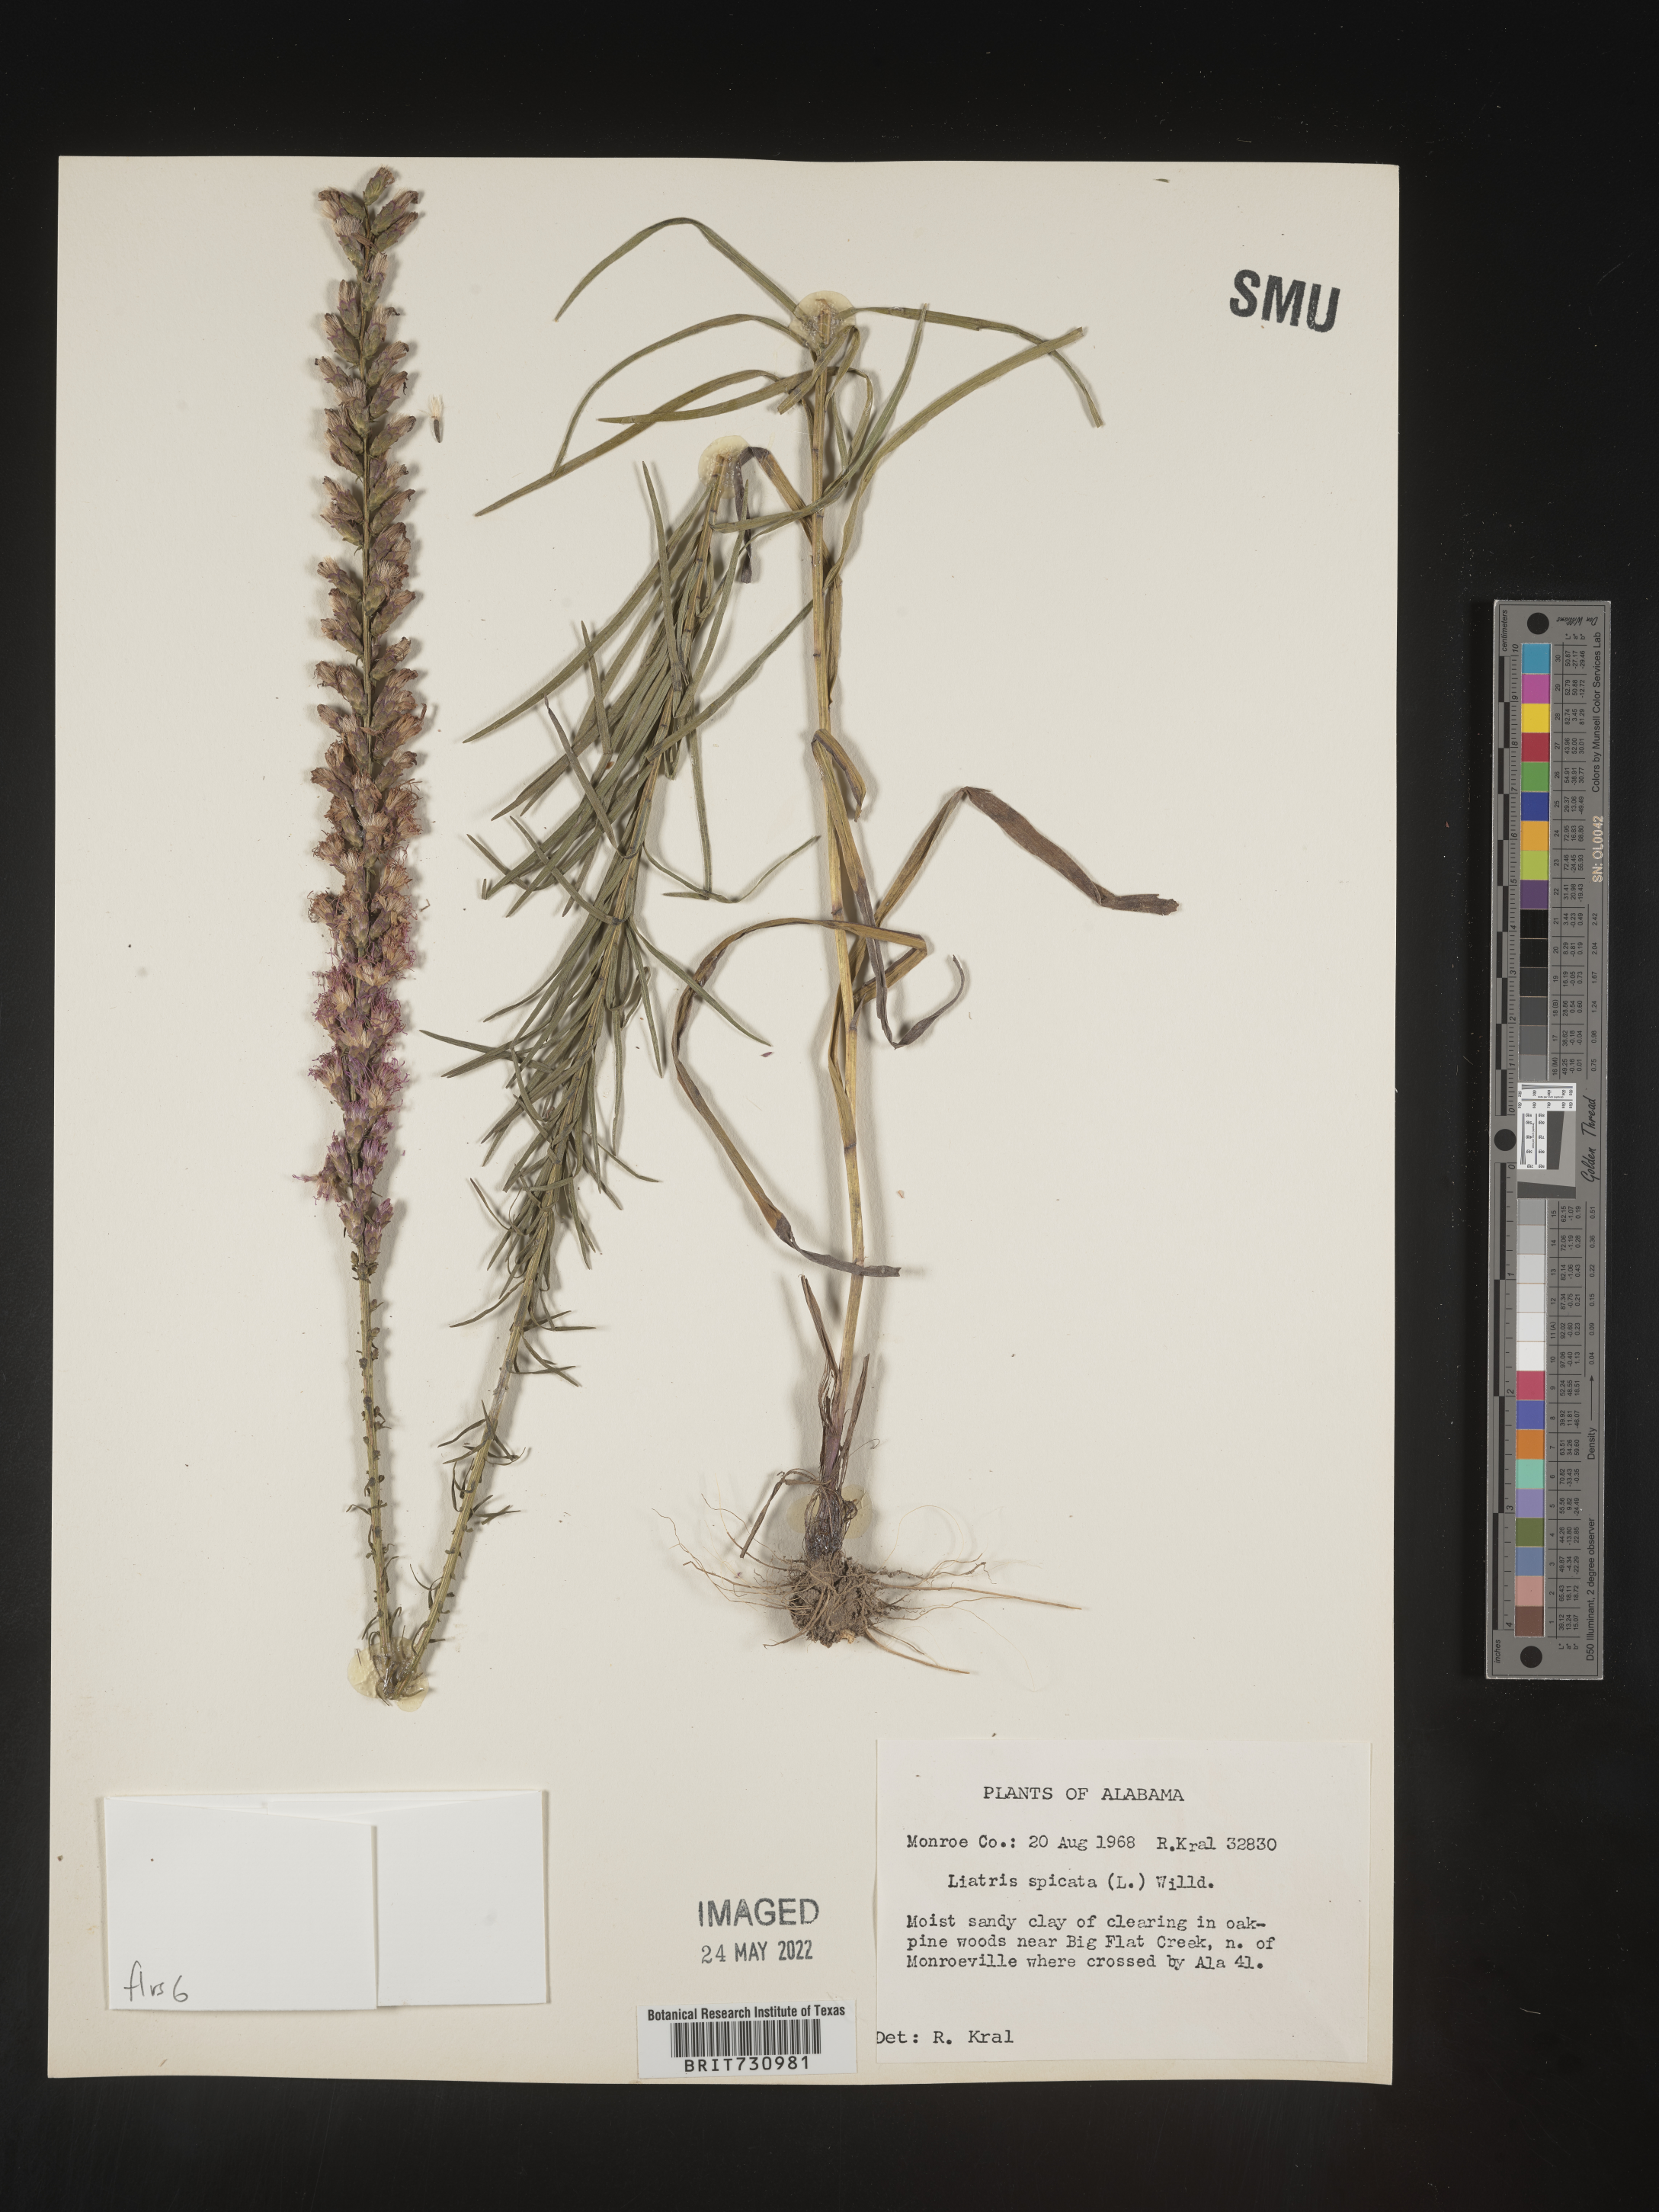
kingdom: Plantae
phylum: Tracheophyta
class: Magnoliopsida
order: Asterales
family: Asteraceae
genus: Liatris
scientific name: Liatris spicata
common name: Florist gayfeather
